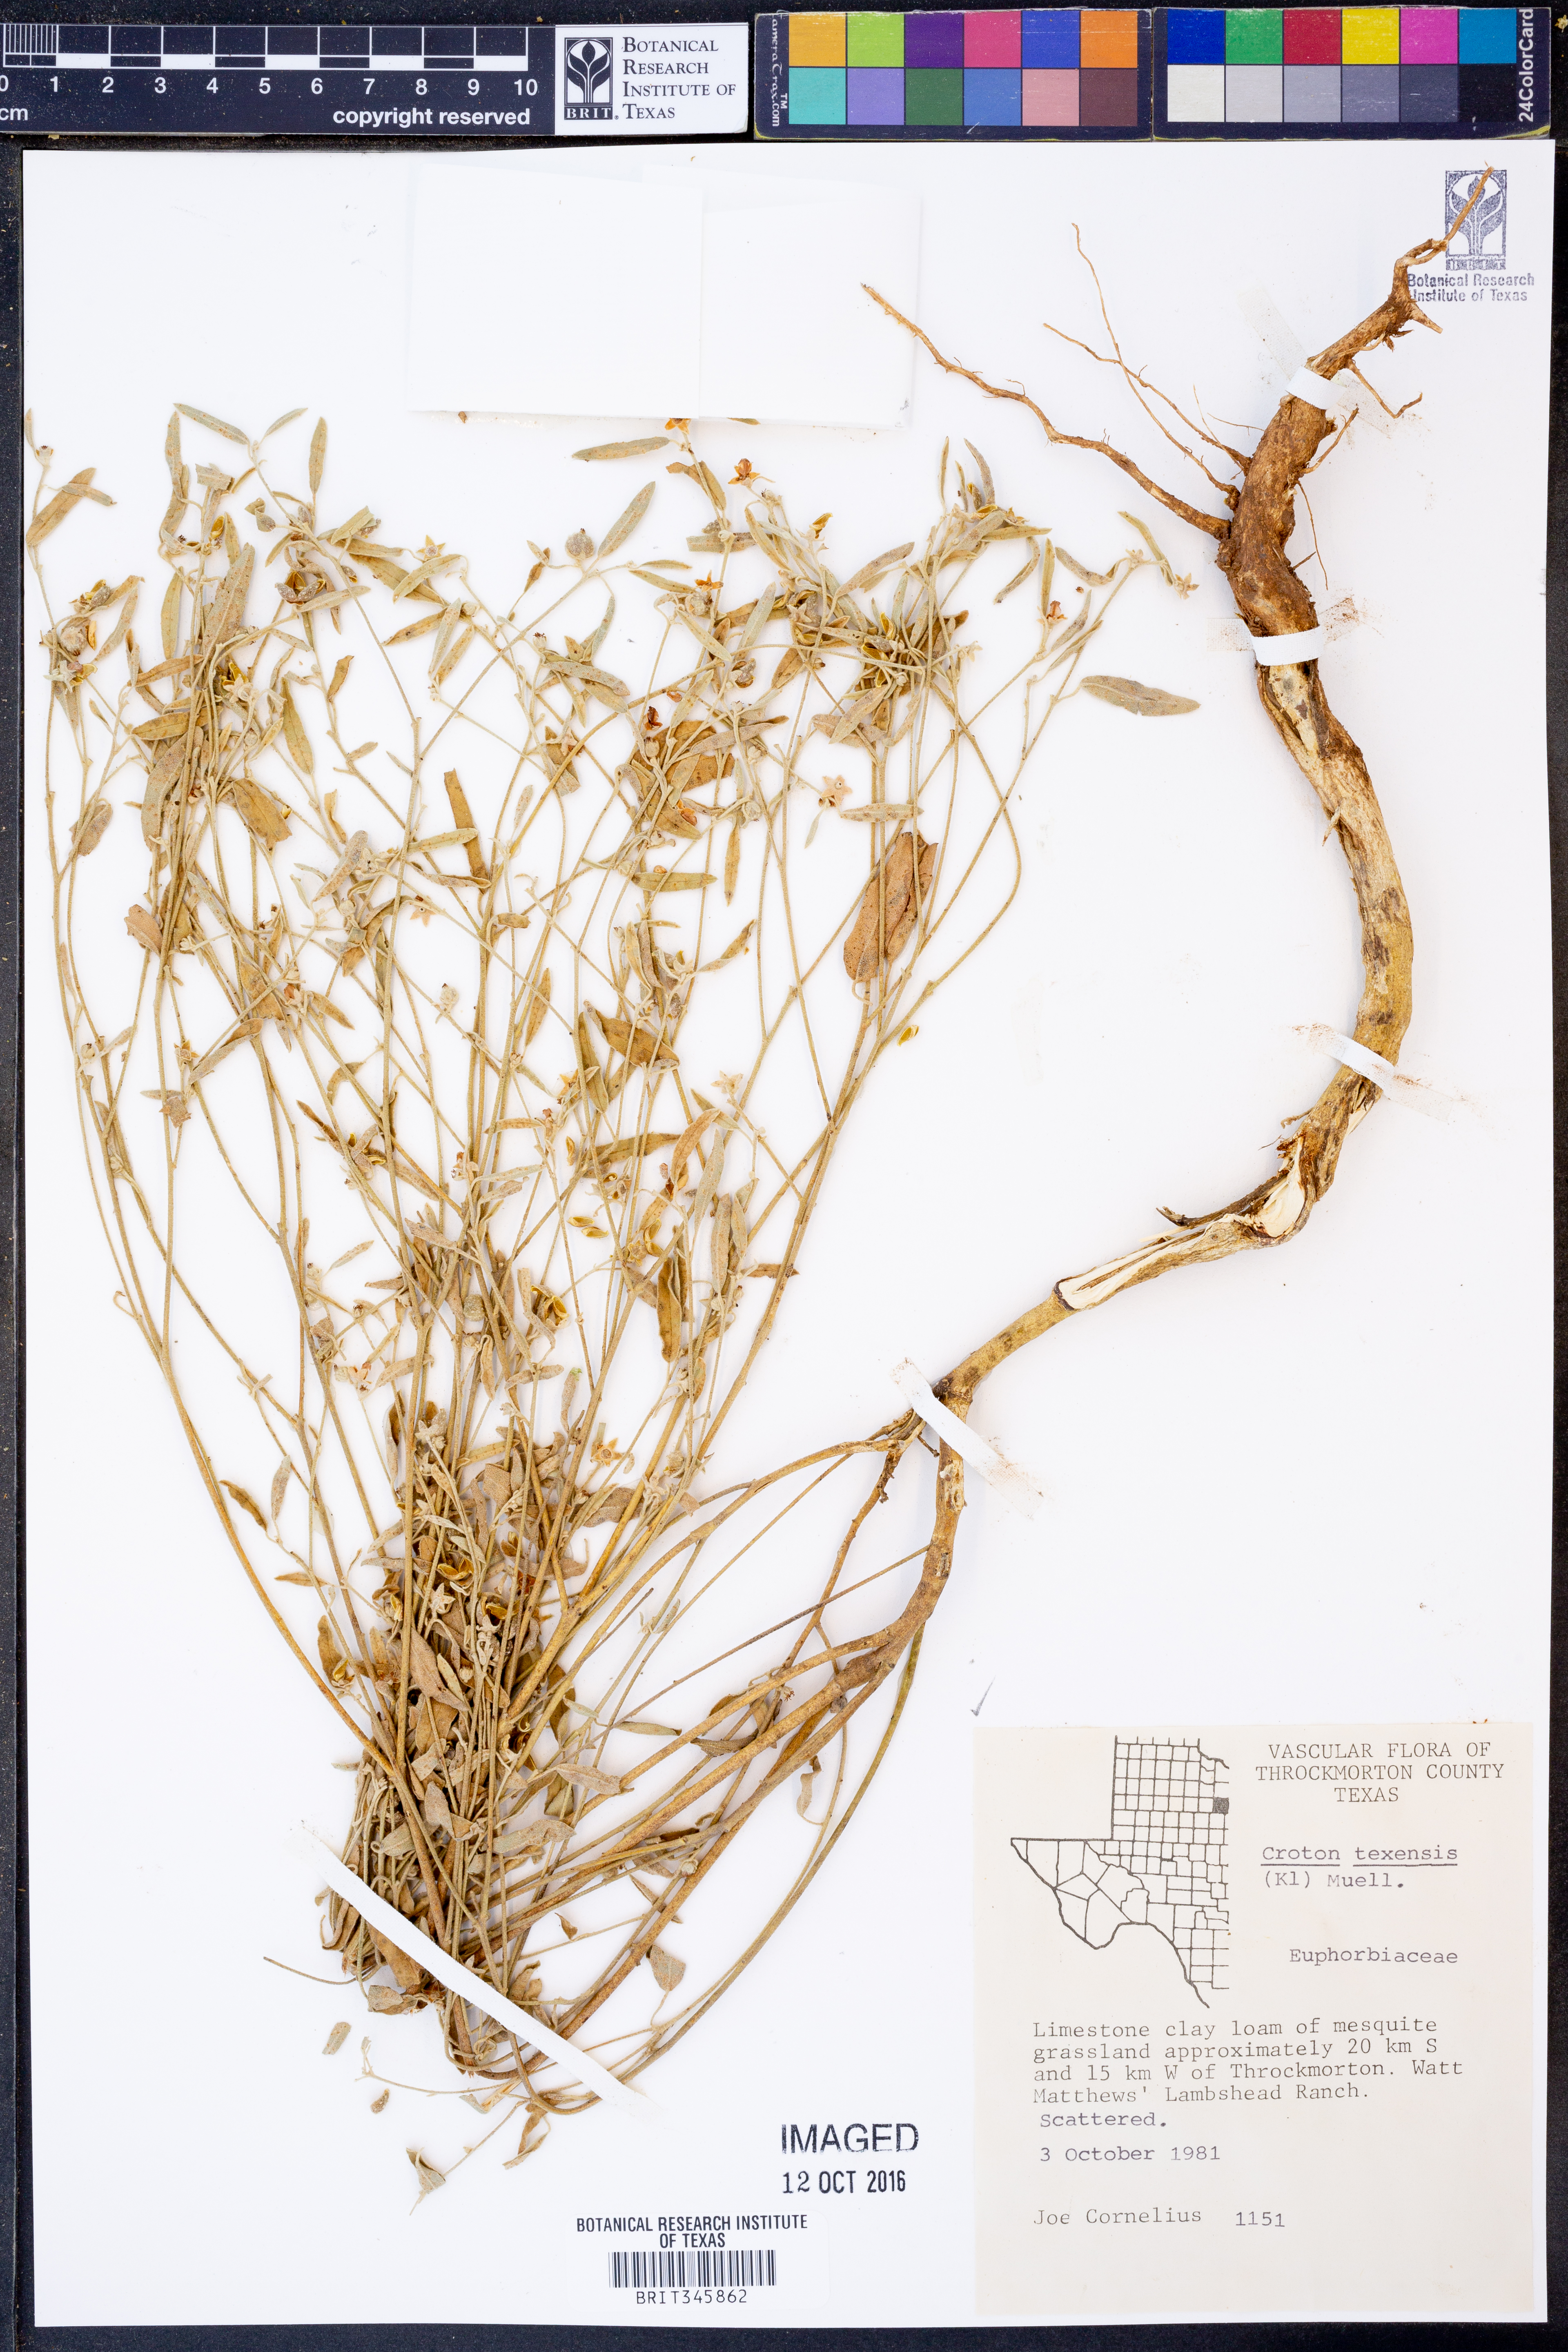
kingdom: Plantae
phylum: Tracheophyta
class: Magnoliopsida
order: Malpighiales
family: Euphorbiaceae
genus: Croton
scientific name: Croton texensis
